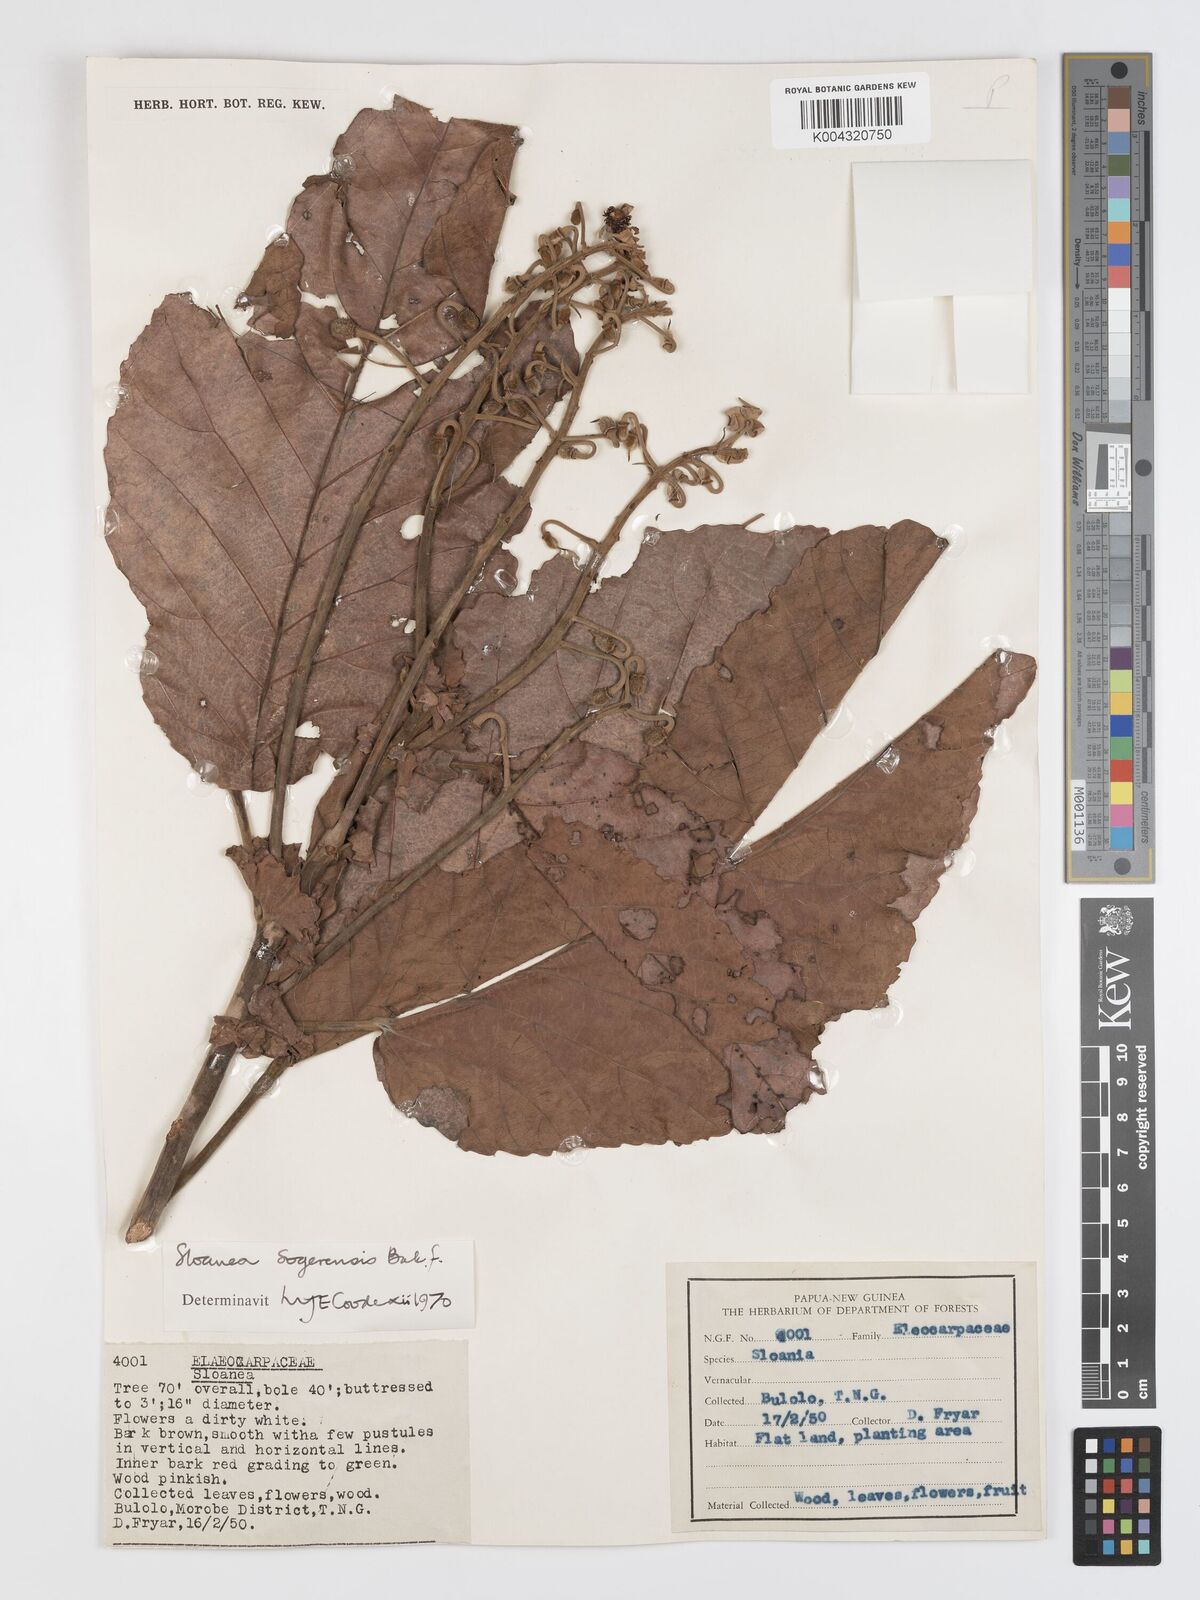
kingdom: Plantae
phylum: Tracheophyta
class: Magnoliopsida
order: Oxalidales
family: Elaeocarpaceae
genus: Sloanea
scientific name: Sloanea sogerensis
